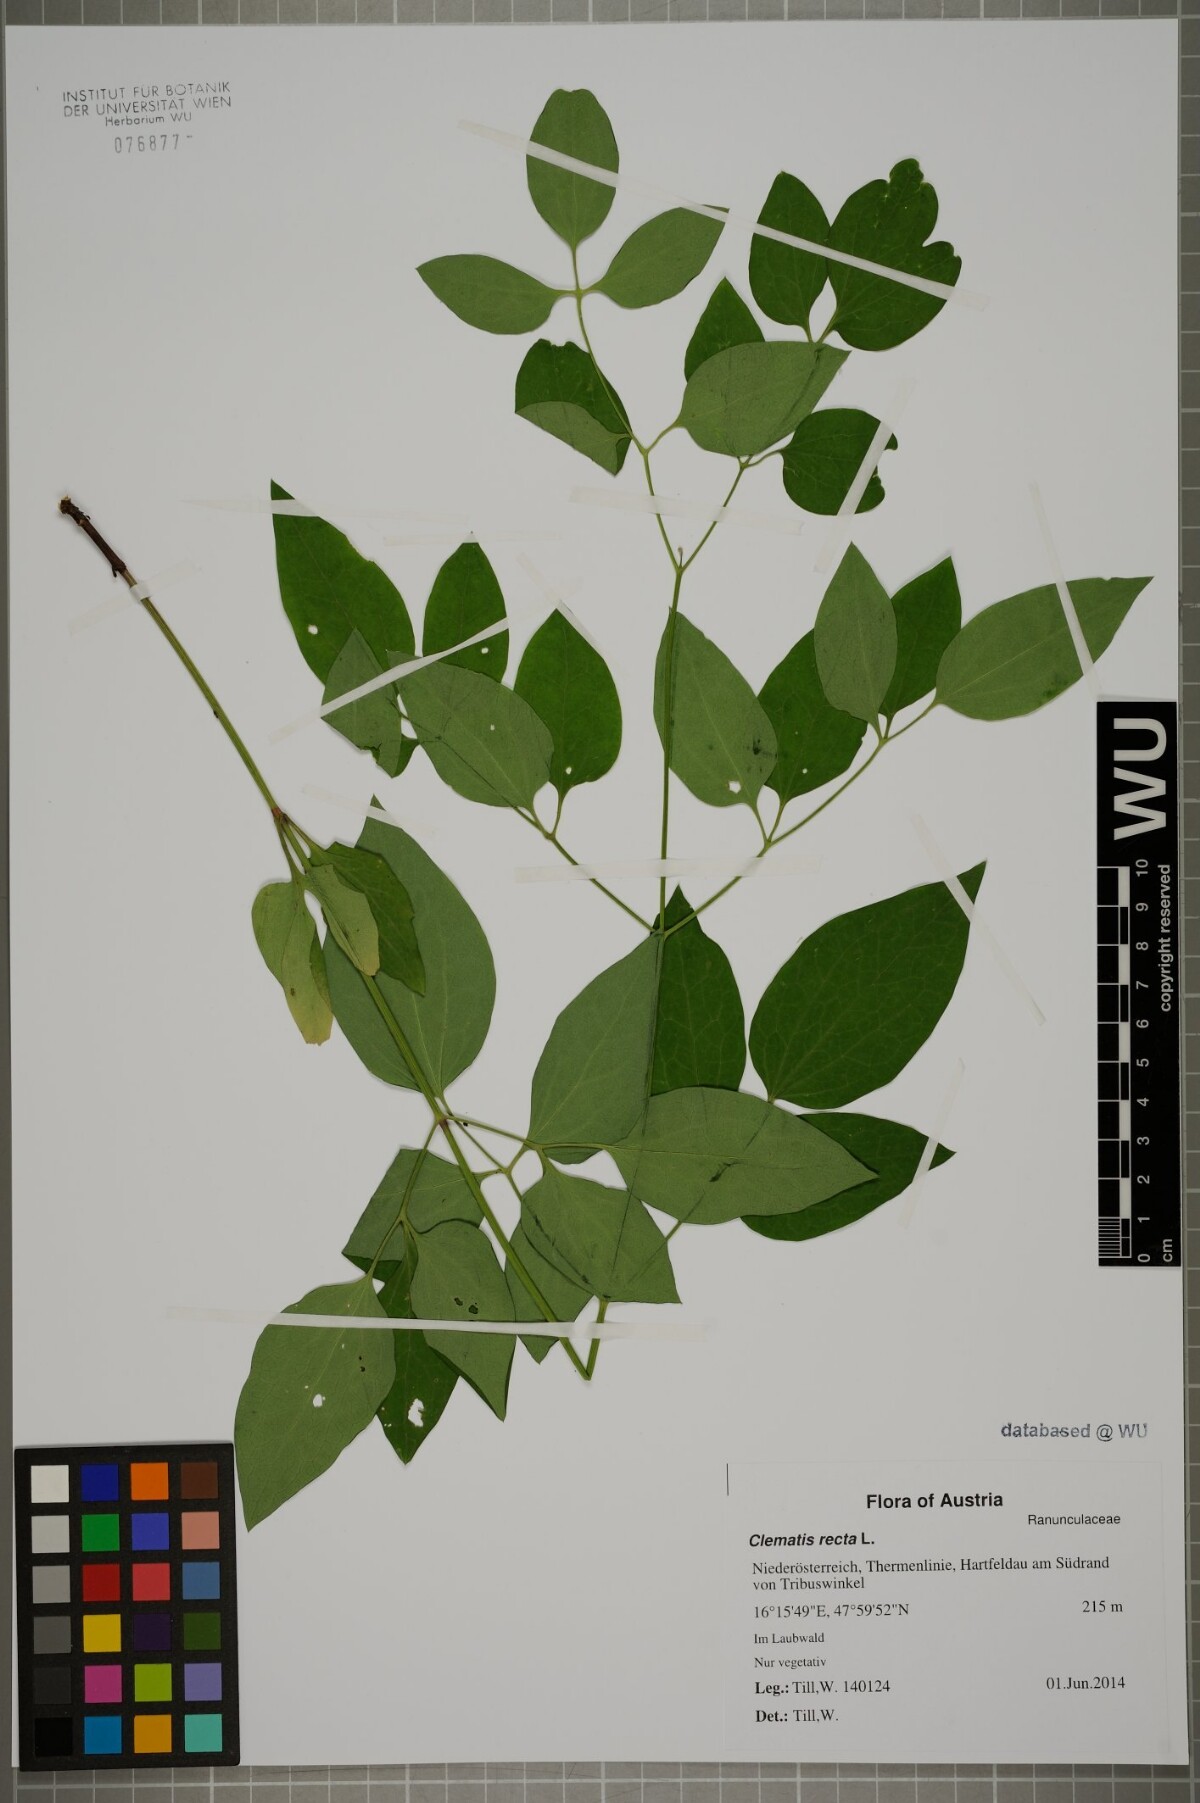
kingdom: Plantae
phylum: Tracheophyta
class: Magnoliopsida
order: Ranunculales
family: Ranunculaceae
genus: Clematis
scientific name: Clematis recta
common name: Ground clematis
